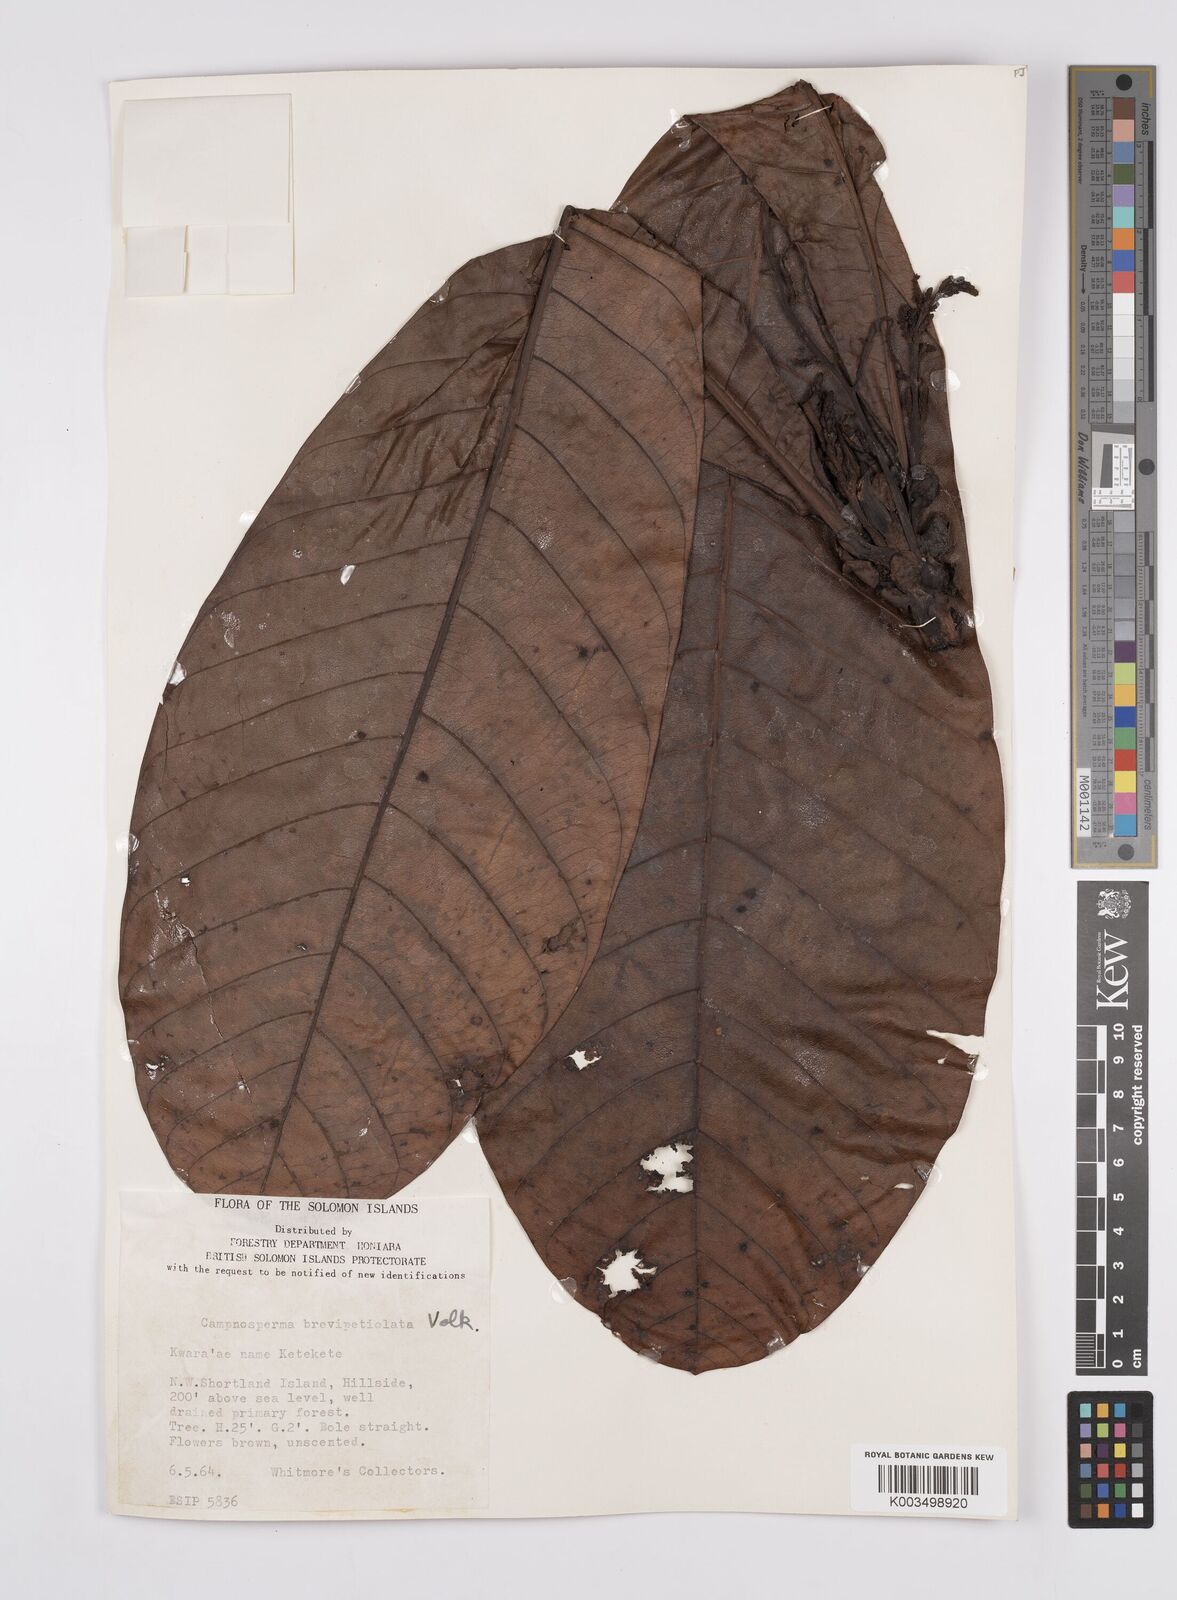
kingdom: Plantae
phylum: Tracheophyta
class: Magnoliopsida
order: Sapindales
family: Anacardiaceae
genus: Campnosperma
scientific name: Campnosperma brevipetiolatum
